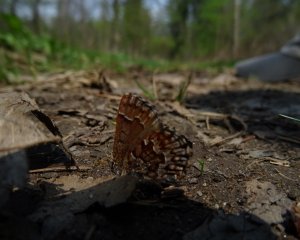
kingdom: Animalia
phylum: Arthropoda
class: Insecta
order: Lepidoptera
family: Lycaenidae
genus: Incisalia
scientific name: Incisalia niphon
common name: Eastern Pine Elfin
